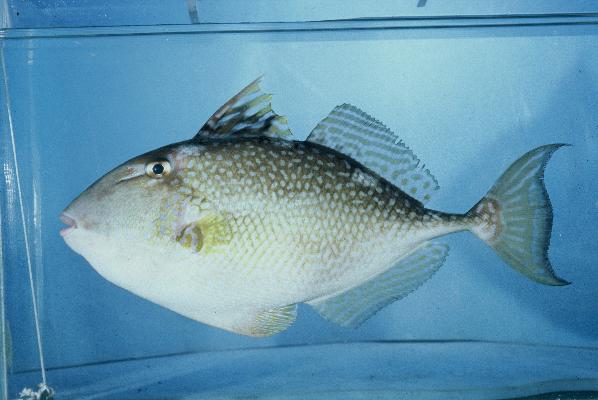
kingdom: Animalia
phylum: Chordata
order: Tetraodontiformes
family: Balistidae
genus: Abalistes
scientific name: Abalistes stellaris
